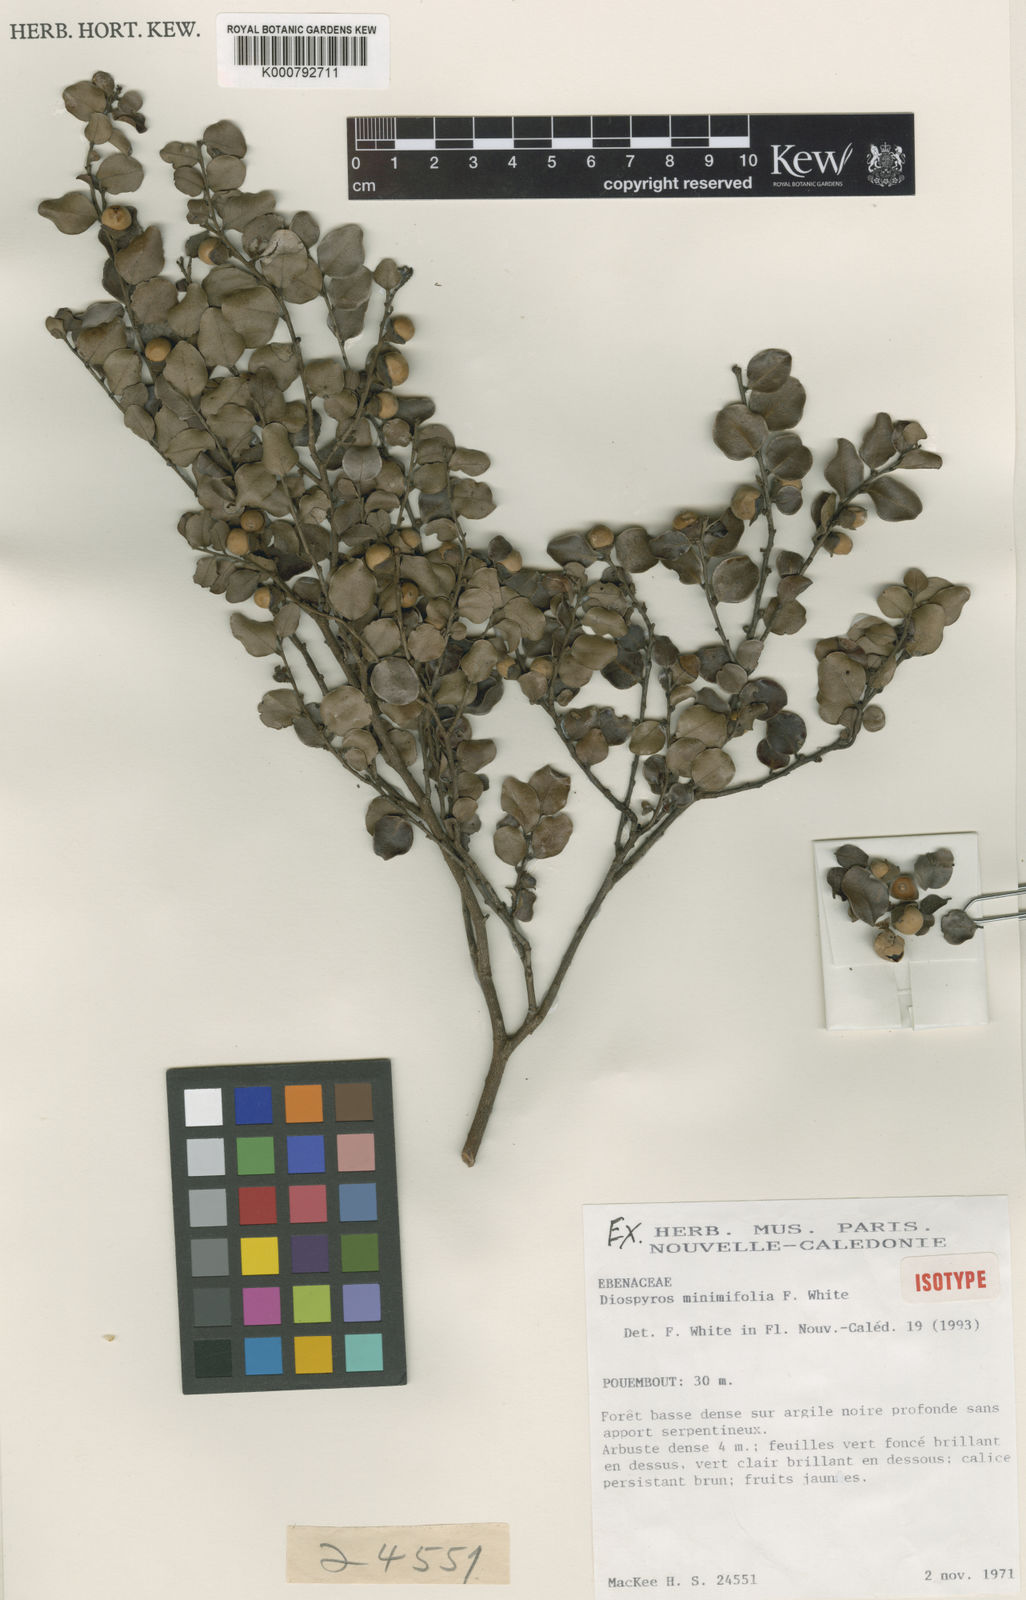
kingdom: Plantae
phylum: Tracheophyta
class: Magnoliopsida
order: Ericales
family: Ebenaceae
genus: Diospyros
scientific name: Diospyros minimifolia
